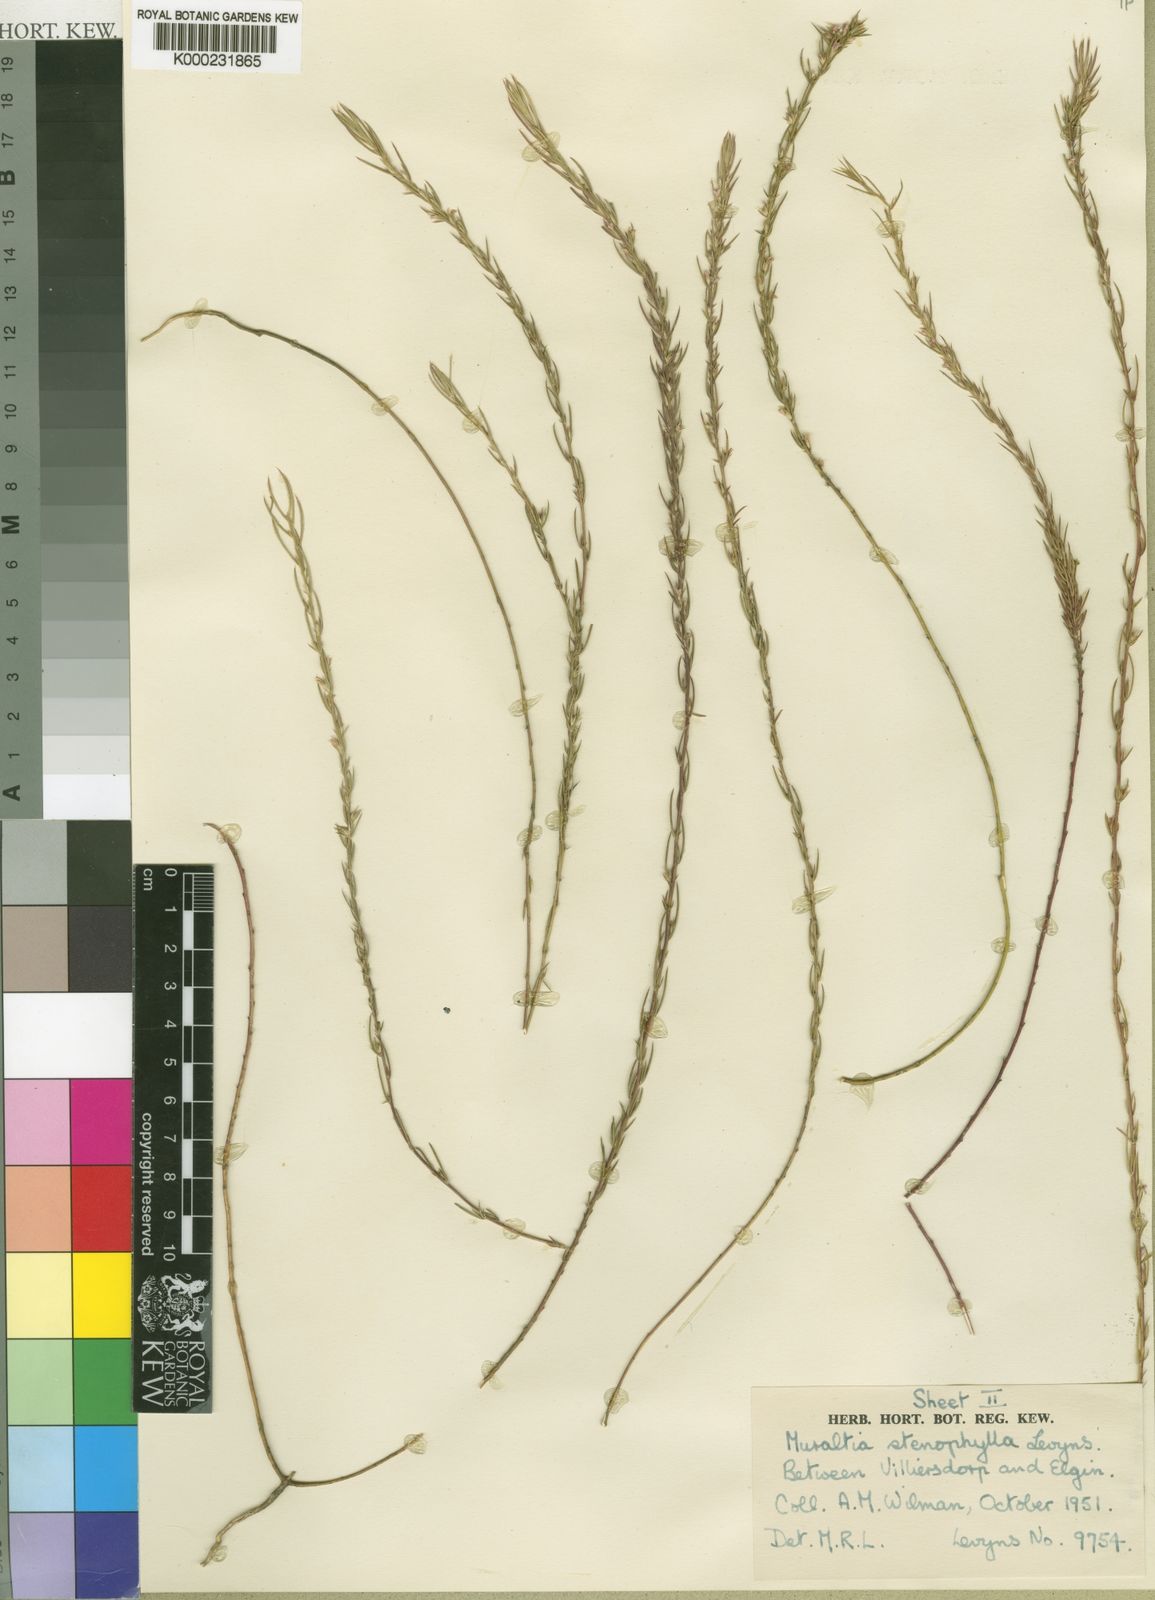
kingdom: Plantae
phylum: Tracheophyta
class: Magnoliopsida
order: Fabales
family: Polygalaceae
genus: Muraltia
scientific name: Muraltia stenophylla
